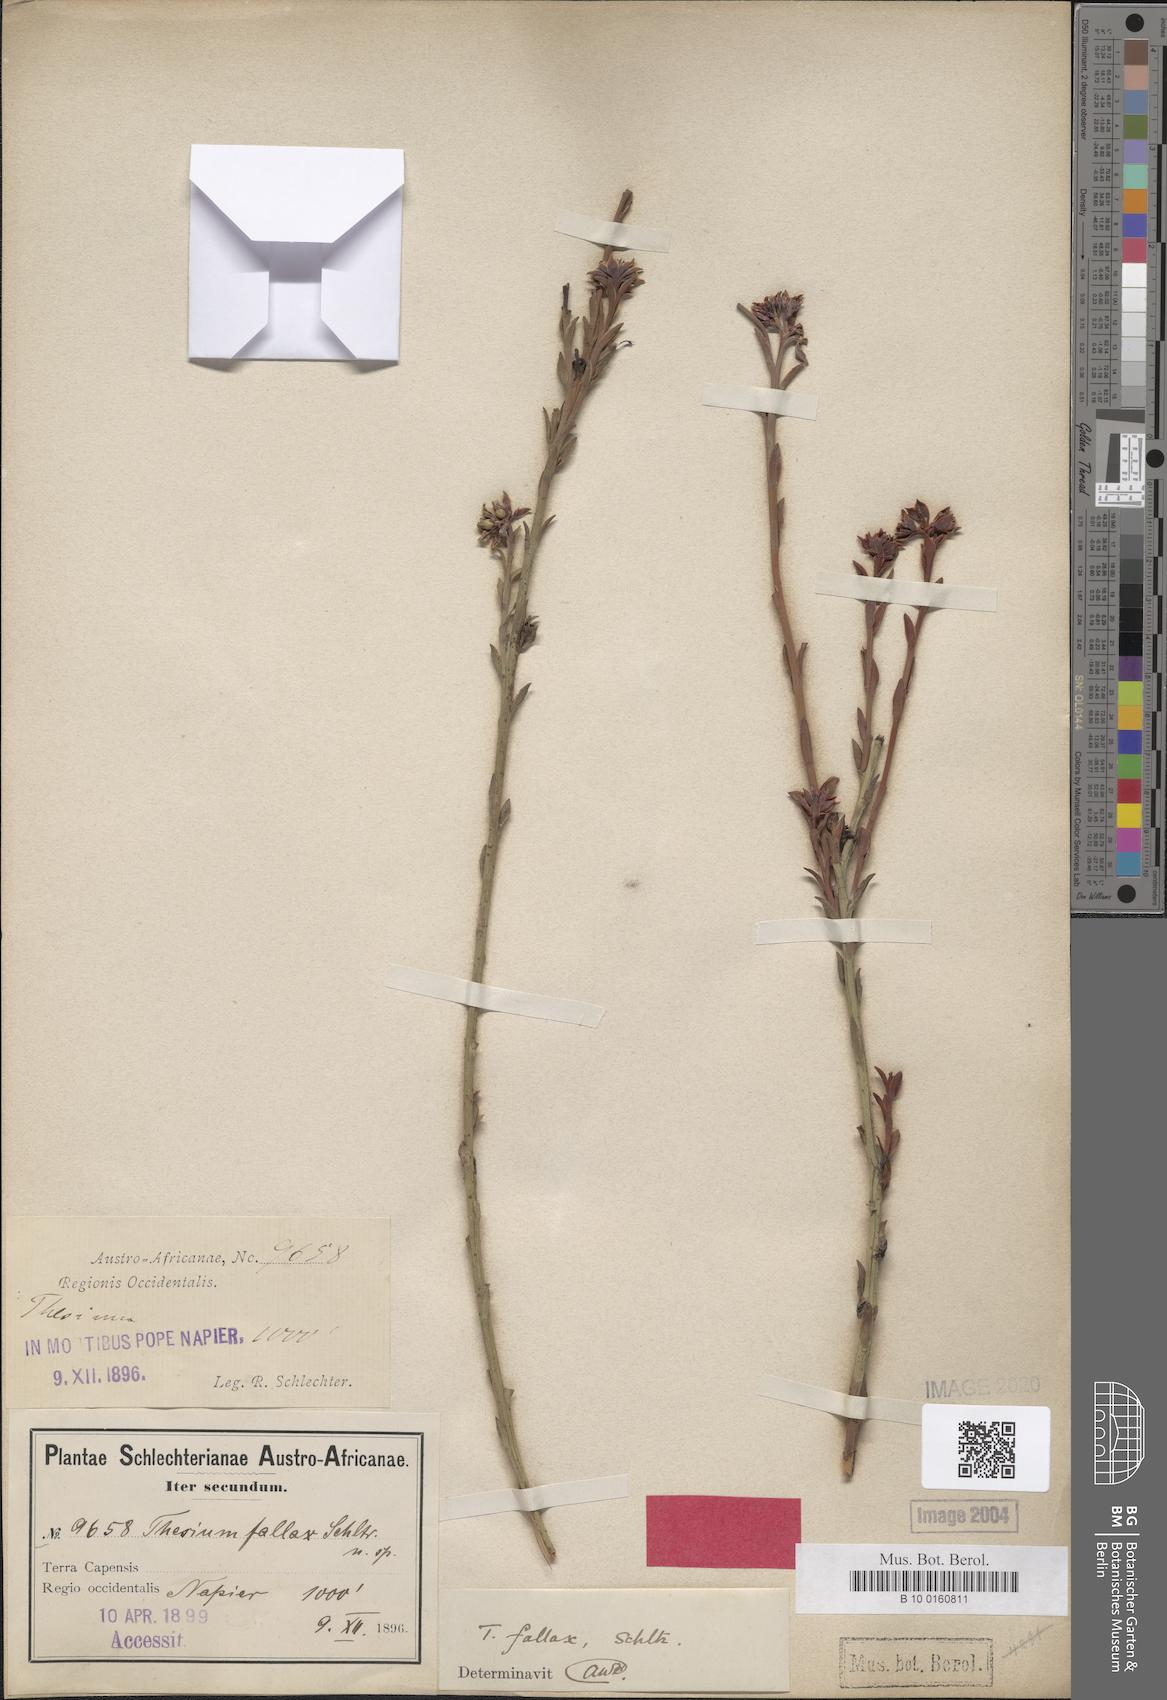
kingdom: Plantae
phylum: Tracheophyta
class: Magnoliopsida
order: Santalales
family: Thesiaceae
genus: Thesium
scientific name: Thesium fallax
